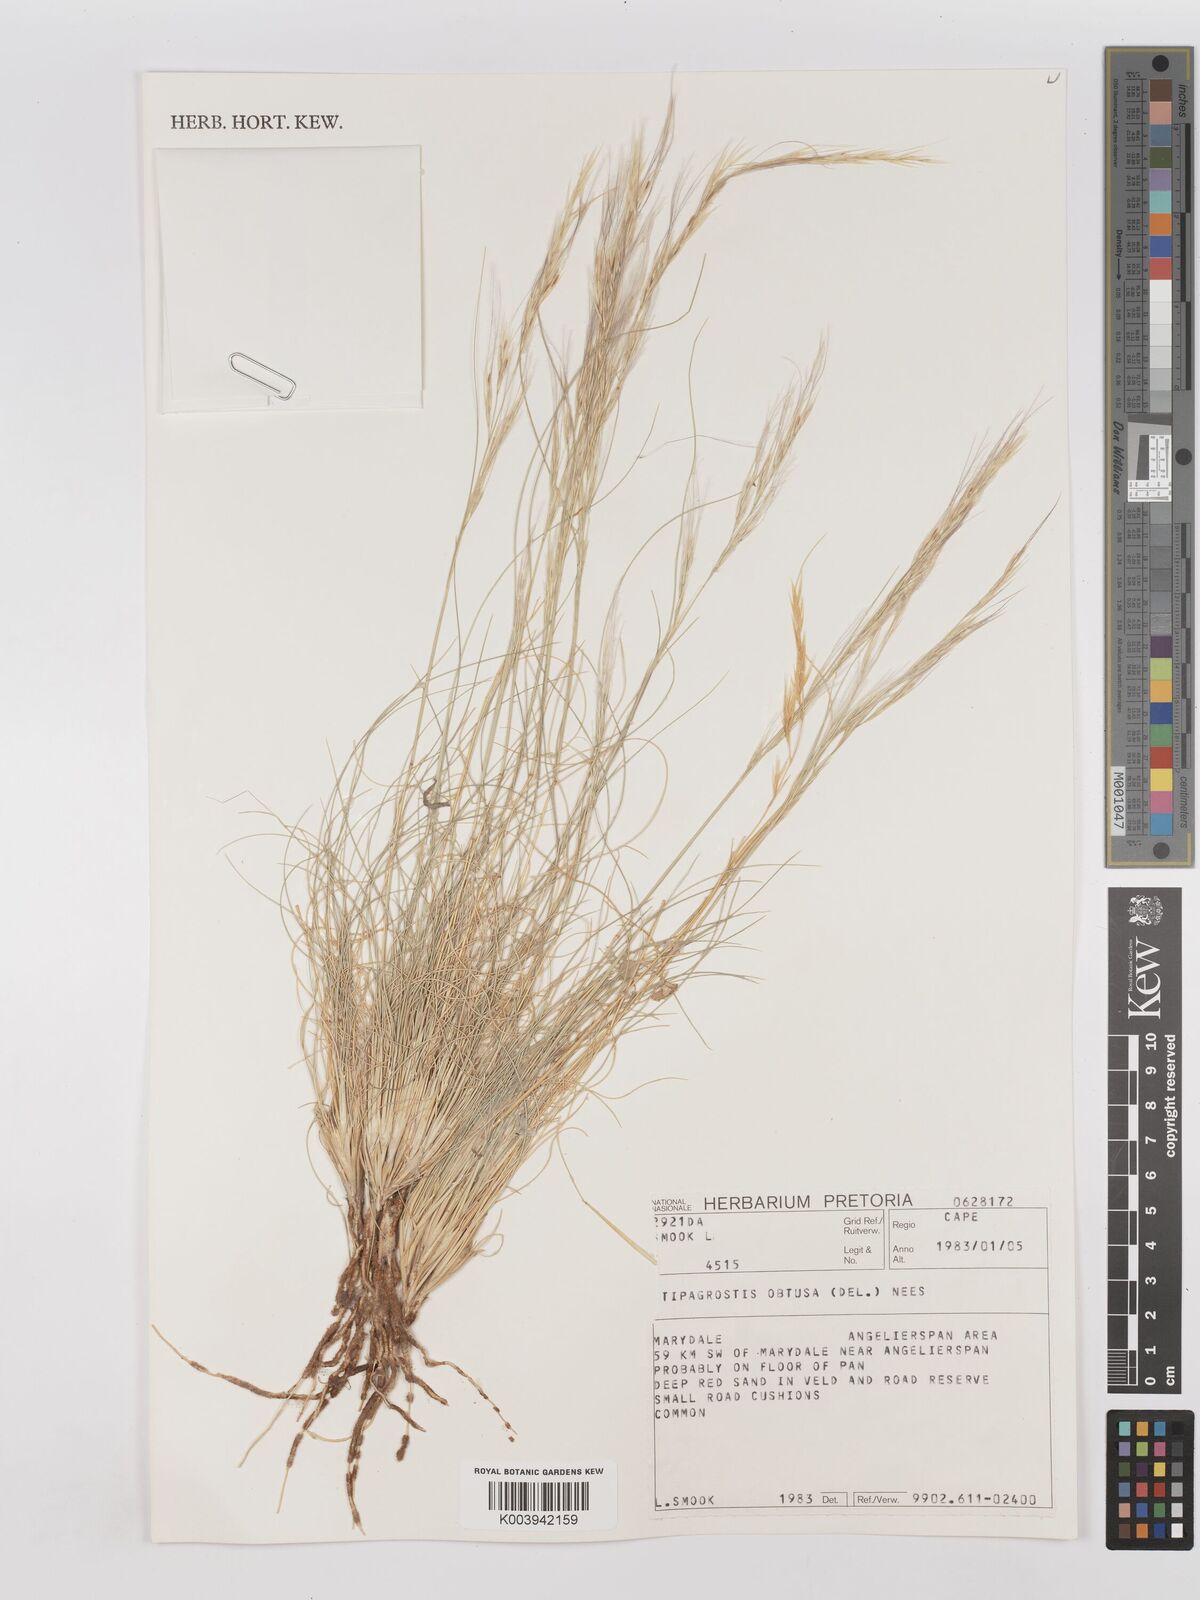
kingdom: Plantae
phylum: Tracheophyta
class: Liliopsida
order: Poales
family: Poaceae
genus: Stipagrostis
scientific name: Stipagrostis obtusa
